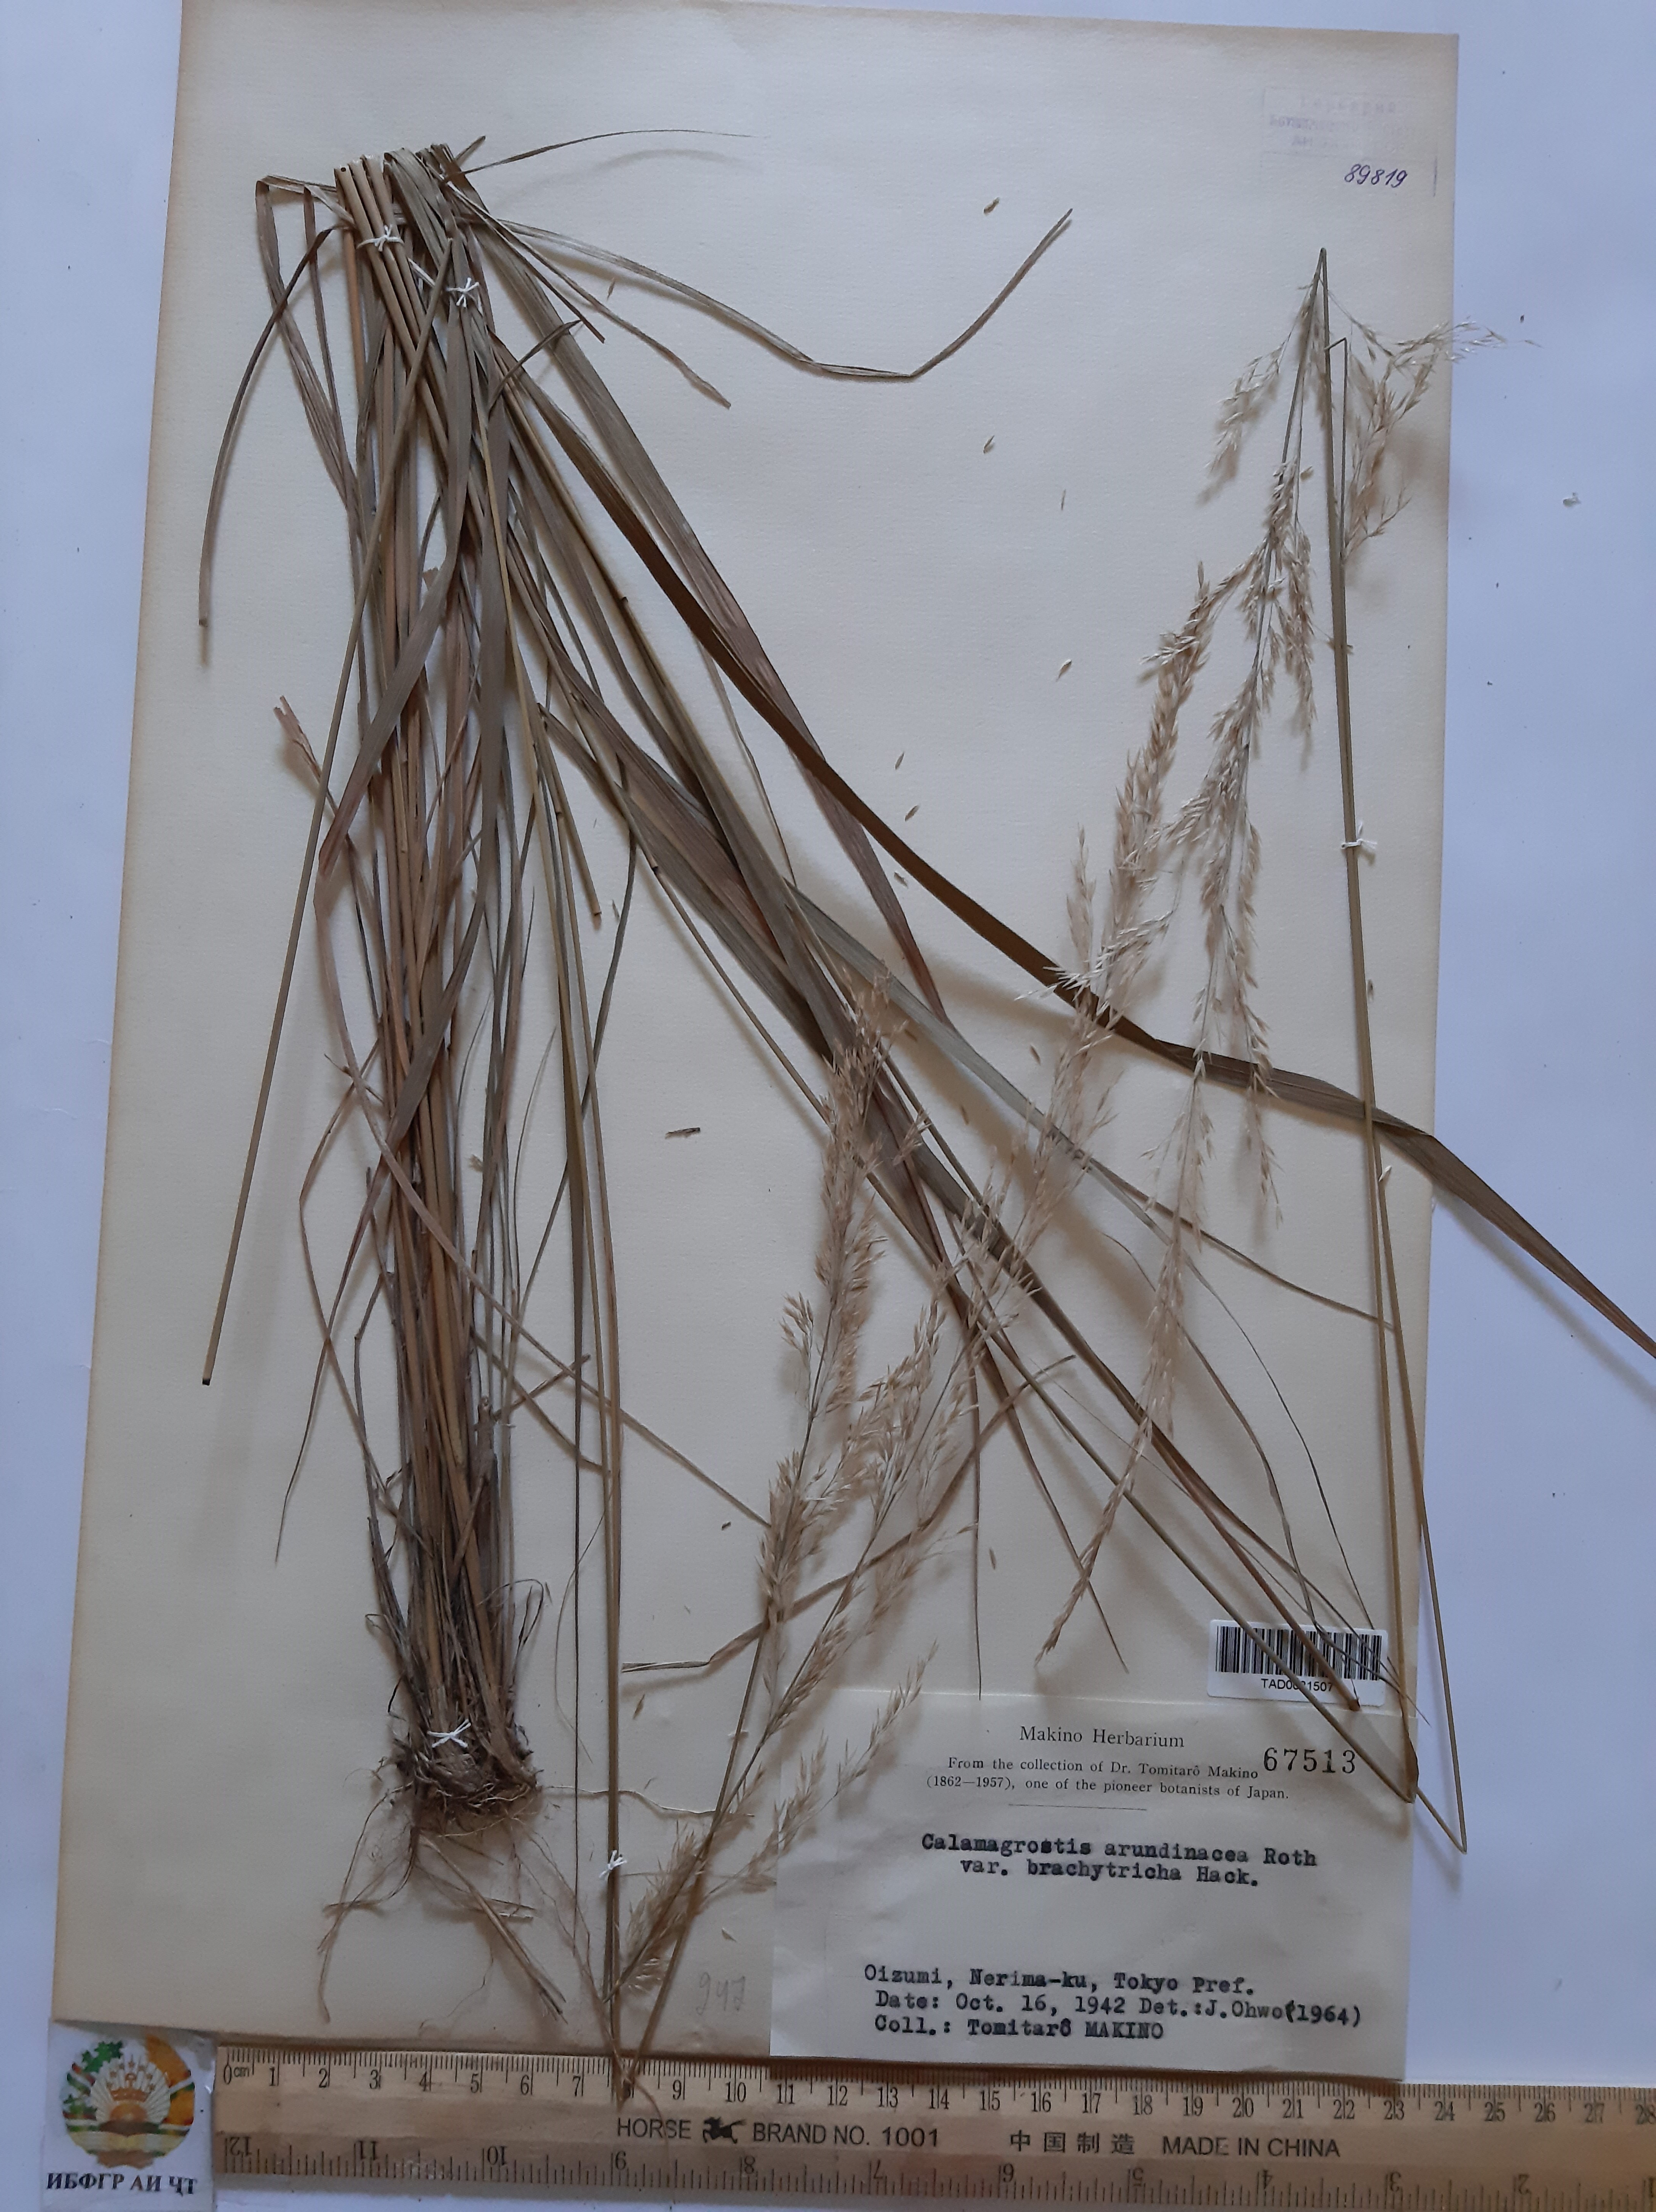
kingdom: Plantae
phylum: Tracheophyta
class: Liliopsida
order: Poales
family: Poaceae
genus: Calamagrostis
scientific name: Calamagrostis arundinacea
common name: Metskastik
